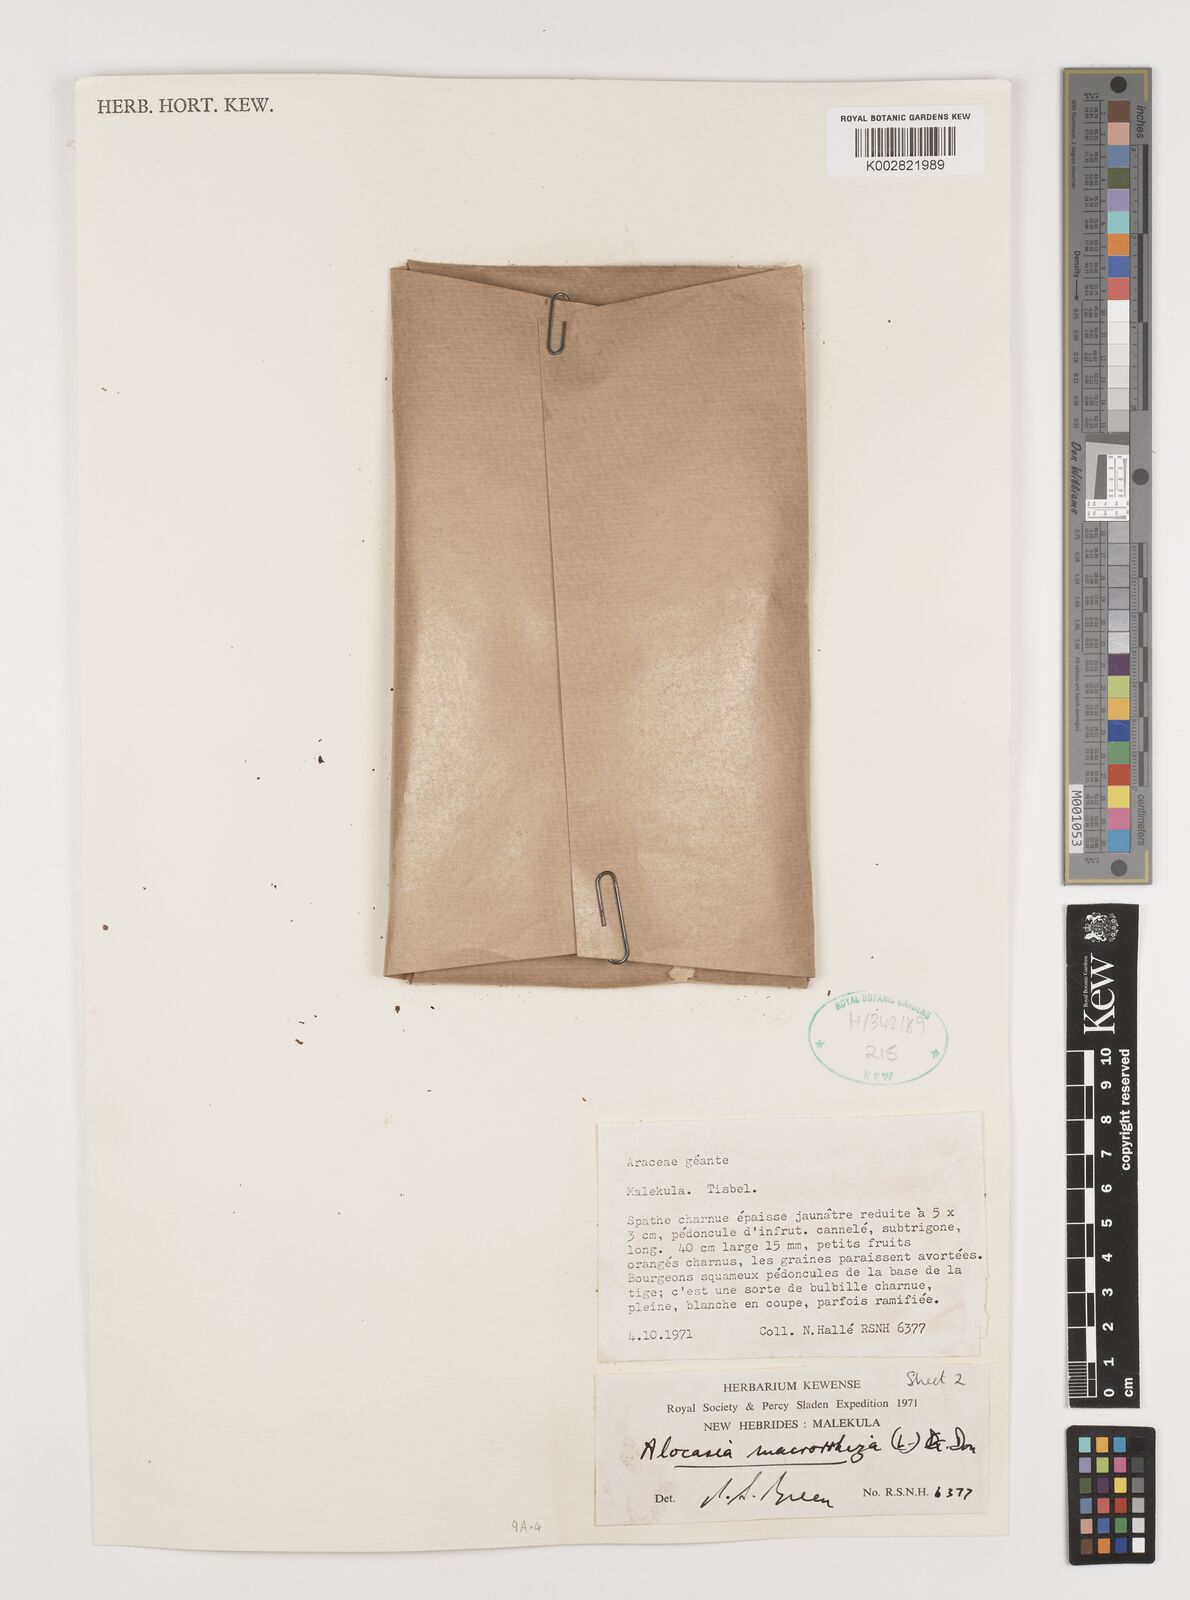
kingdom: Plantae
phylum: Tracheophyta
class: Liliopsida
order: Alismatales
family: Araceae
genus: Alocasia
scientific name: Alocasia macrorrhizos
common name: Giant taro
